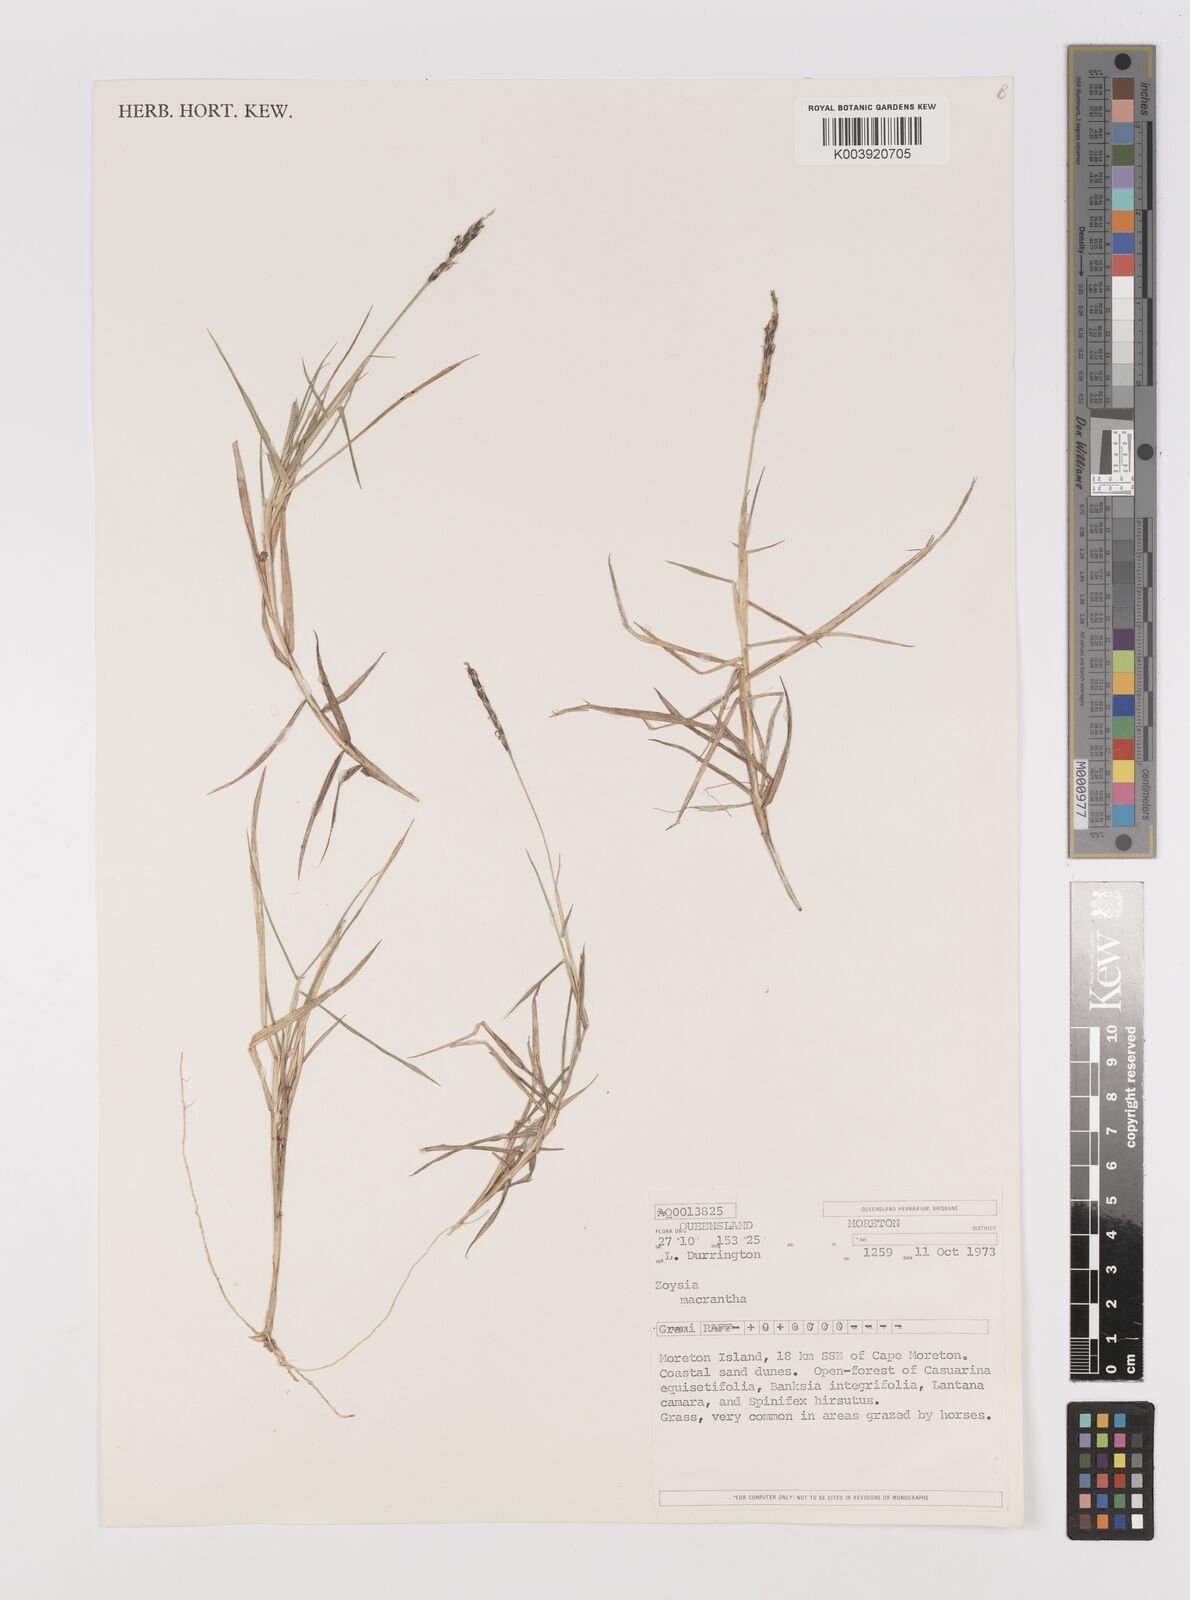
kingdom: Plantae
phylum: Tracheophyta
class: Liliopsida
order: Poales
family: Poaceae
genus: Zoysia
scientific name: Zoysia macrantha
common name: Korean lawn grass
